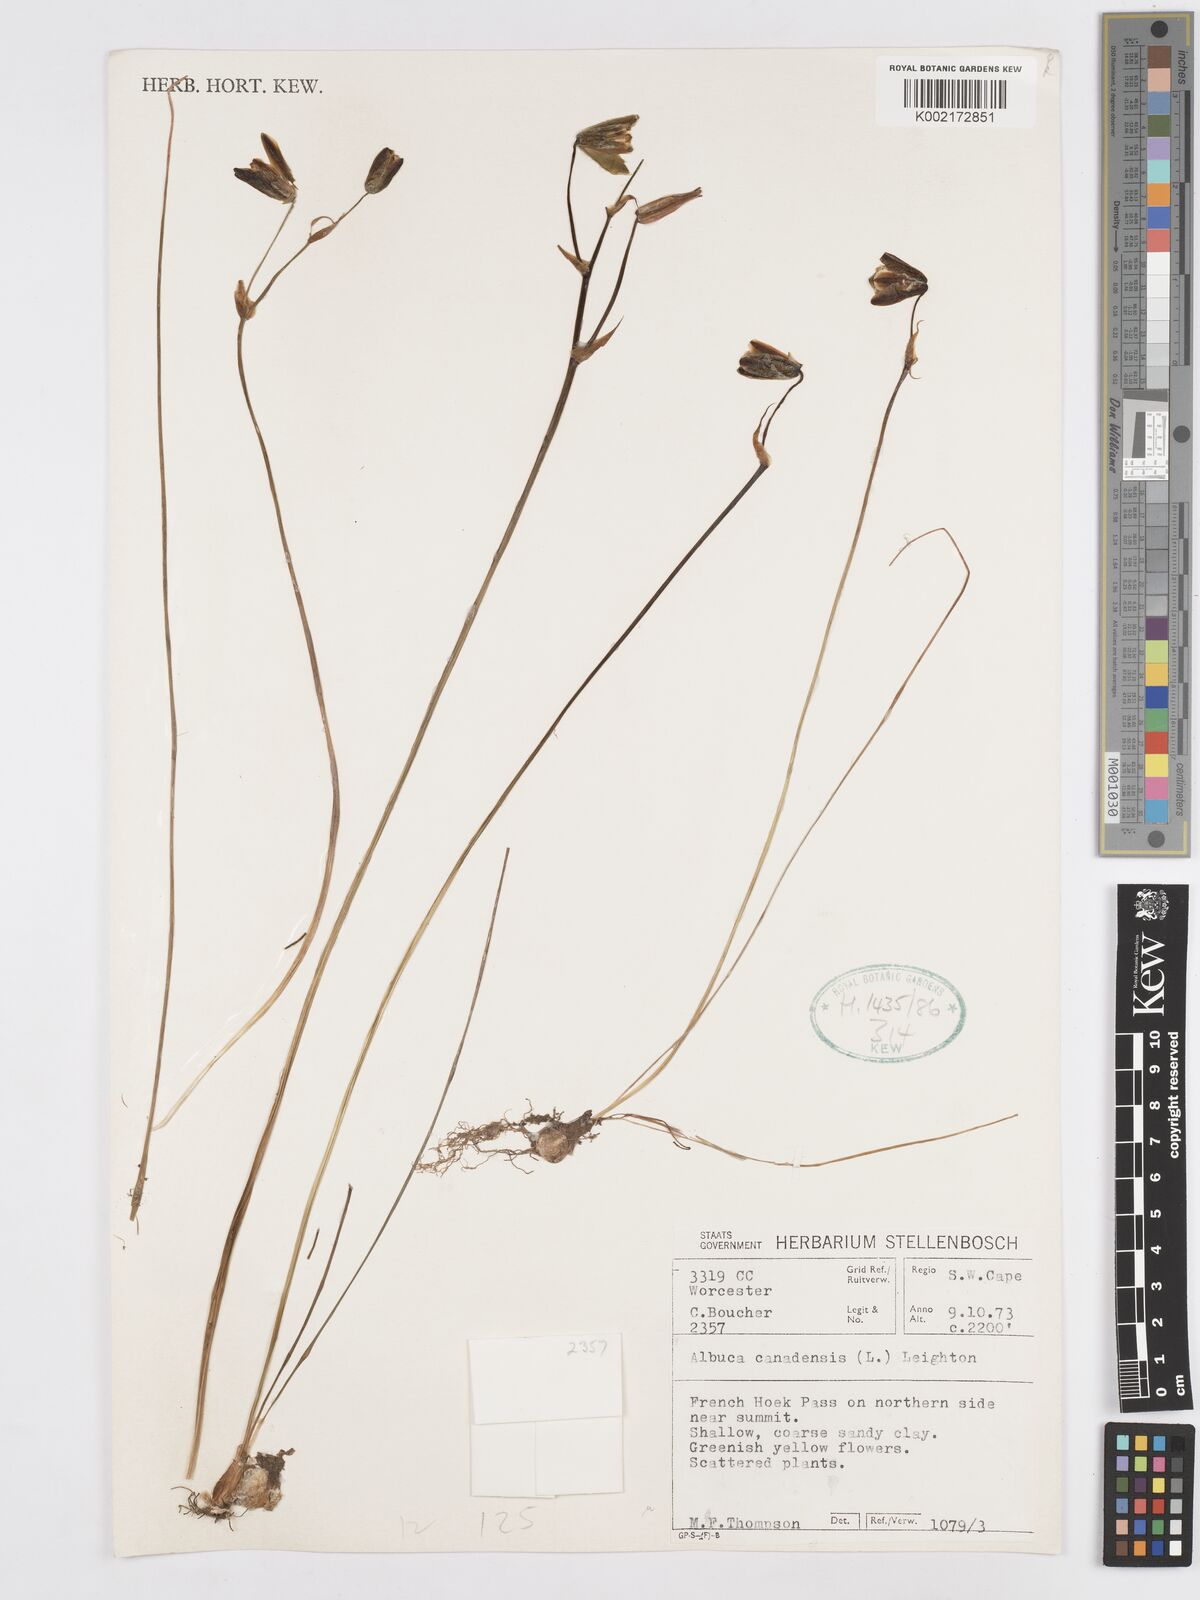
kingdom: Plantae
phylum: Tracheophyta
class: Liliopsida
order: Asparagales
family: Asparagaceae
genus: Albuca
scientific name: Albuca canadensis
